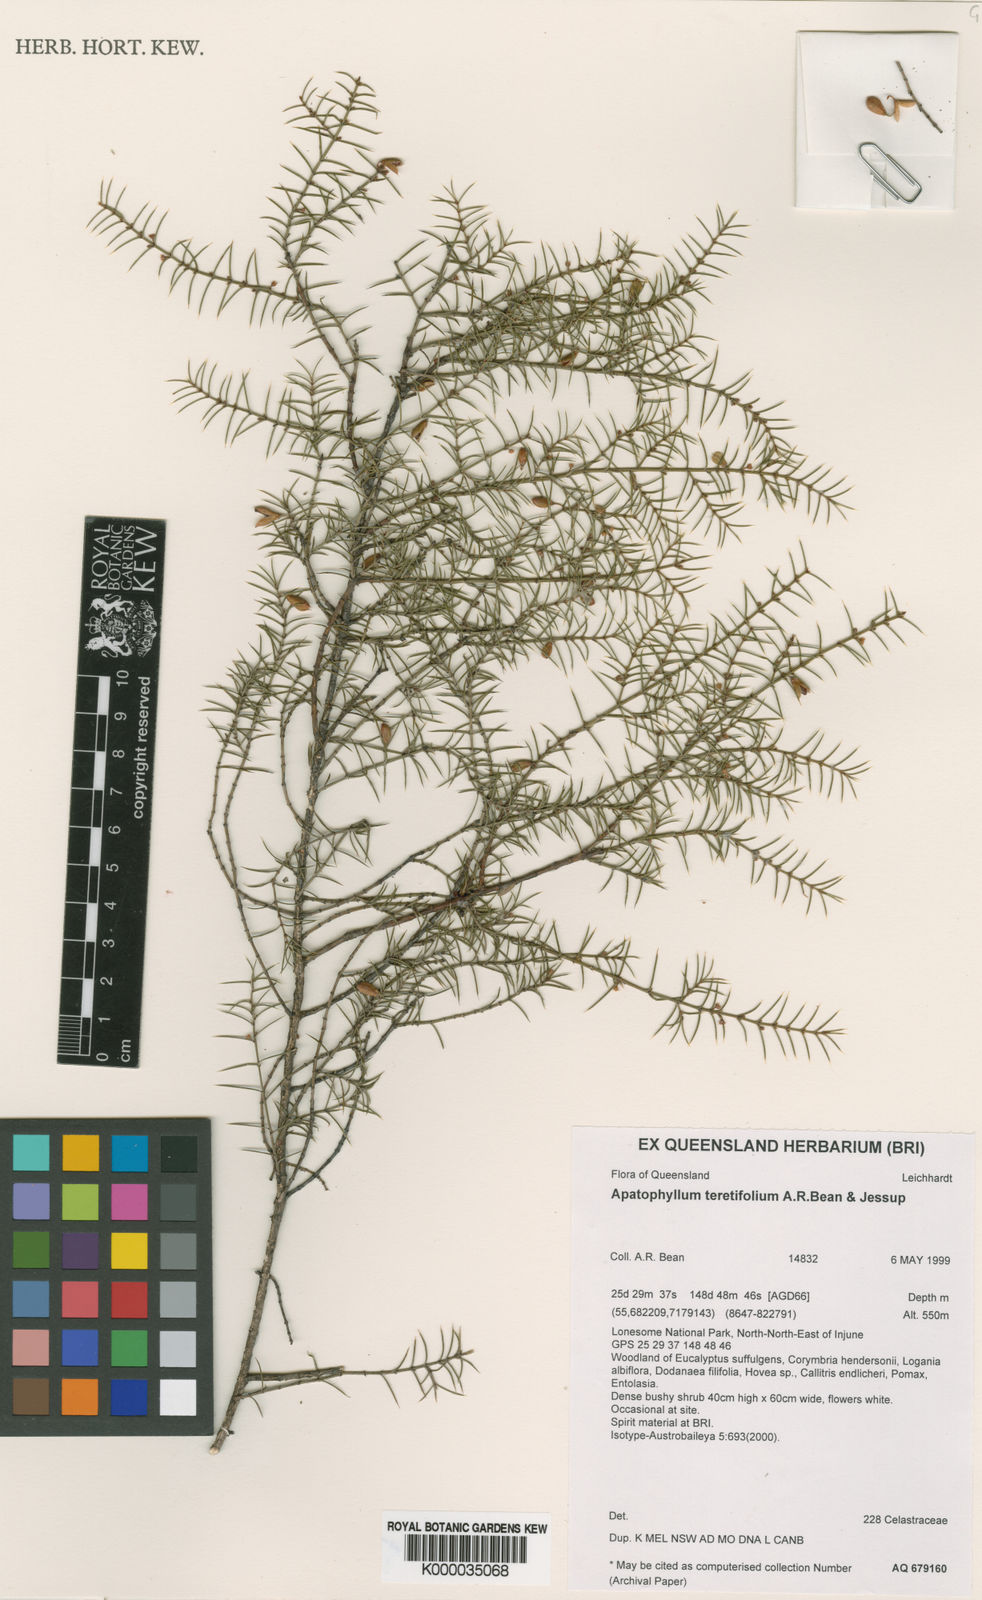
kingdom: Plantae
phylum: Tracheophyta
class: Magnoliopsida
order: Celastrales
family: Celastraceae
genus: Apatophyllum
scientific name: Apatophyllum teretifolium
